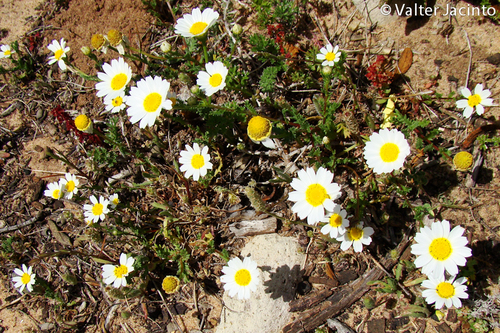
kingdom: Plantae
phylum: Tracheophyta
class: Magnoliopsida
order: Asterales
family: Asteraceae
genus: Cladanthus
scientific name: Cladanthus mixtus
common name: Weedy dogfennel
